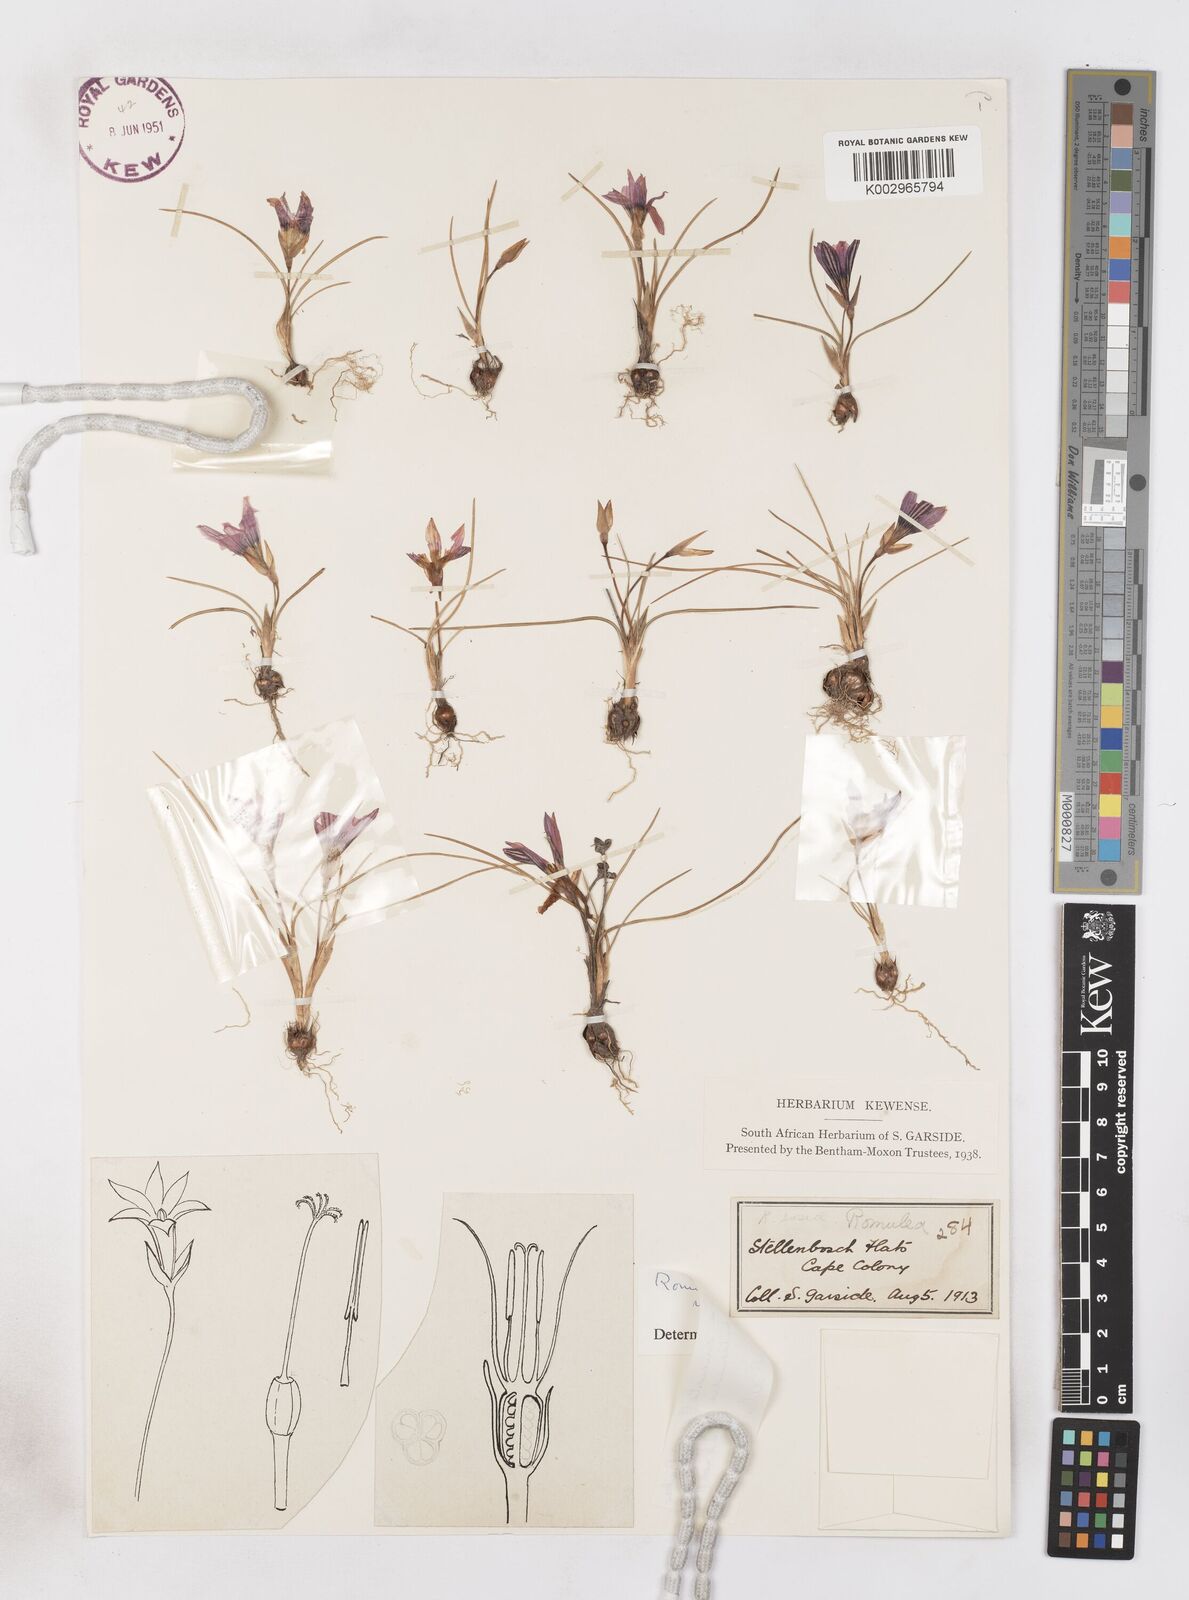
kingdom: Plantae
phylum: Tracheophyta
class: Liliopsida
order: Asparagales
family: Iridaceae
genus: Romulea
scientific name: Romulea cruciata
